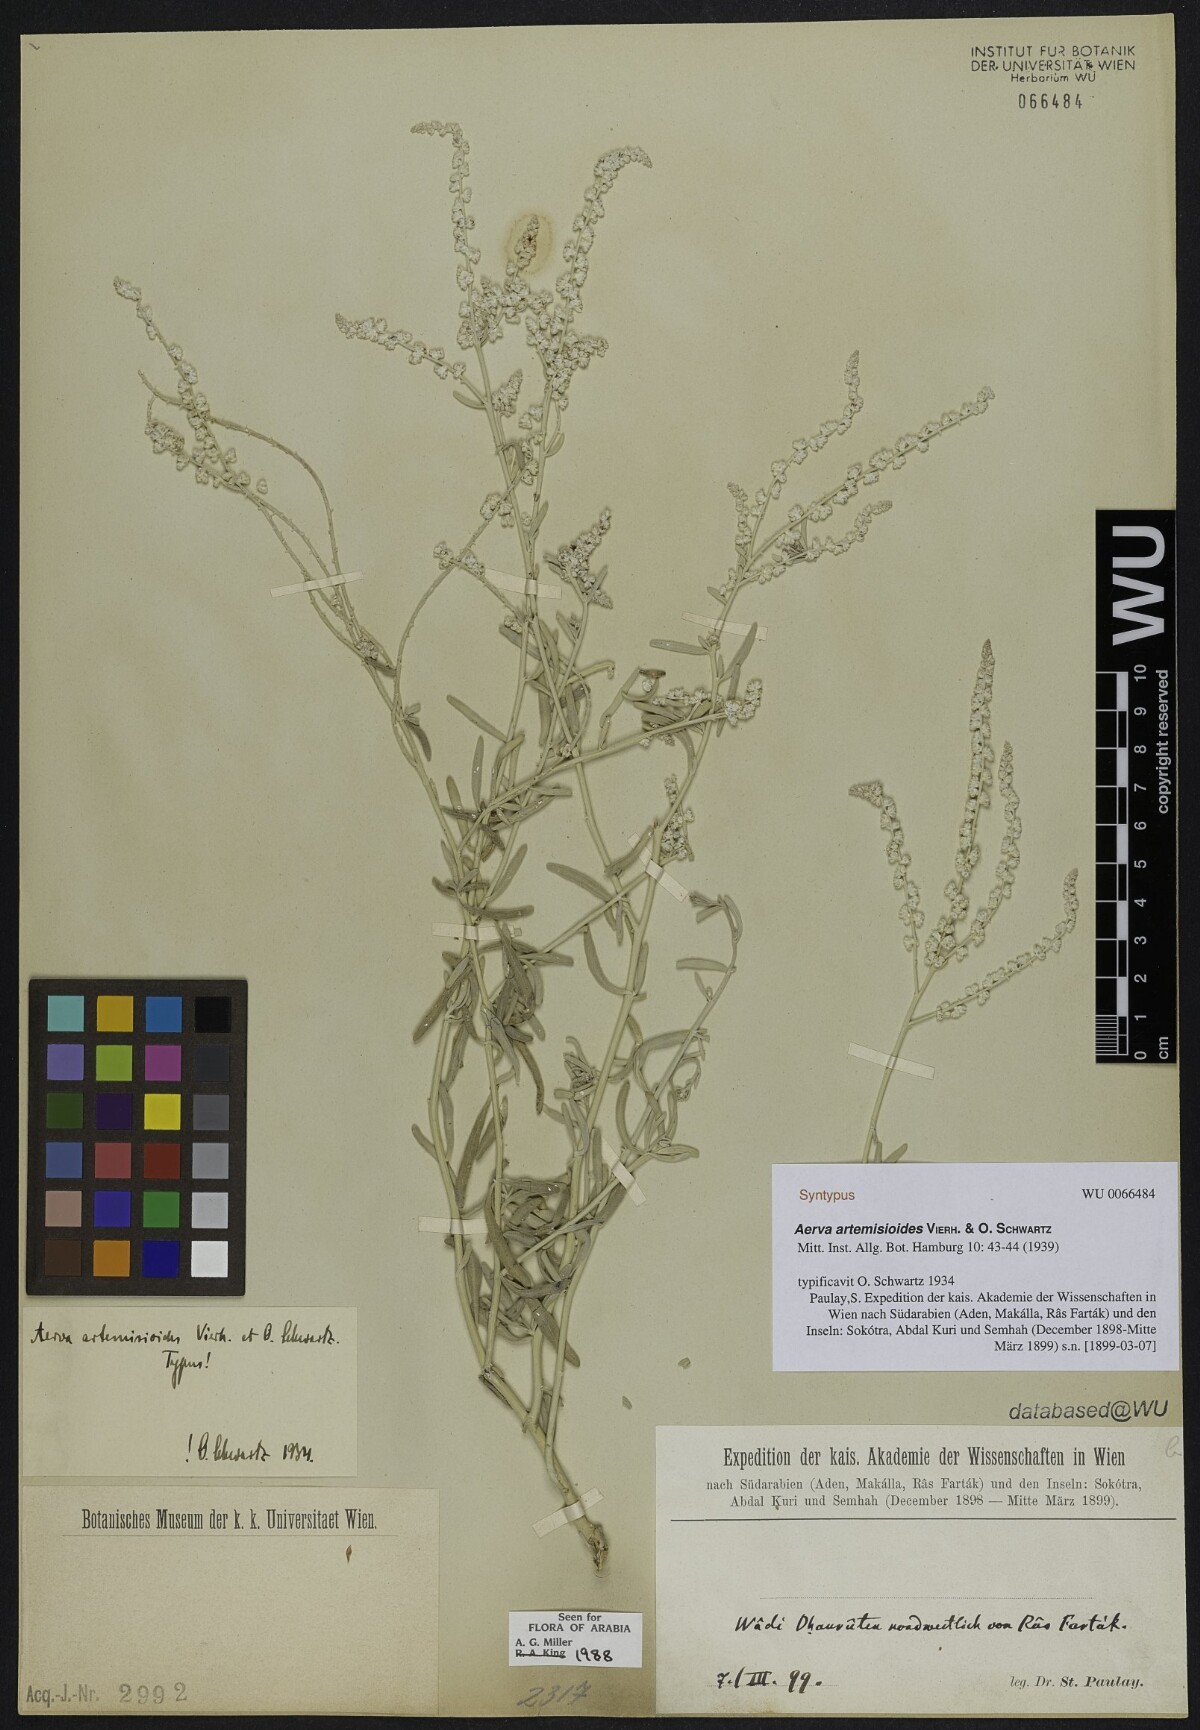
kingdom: Plantae
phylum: Tracheophyta
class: Magnoliopsida
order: Caryophyllales
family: Amaranthaceae
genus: Wadithamnus
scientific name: Wadithamnus artemisioides
